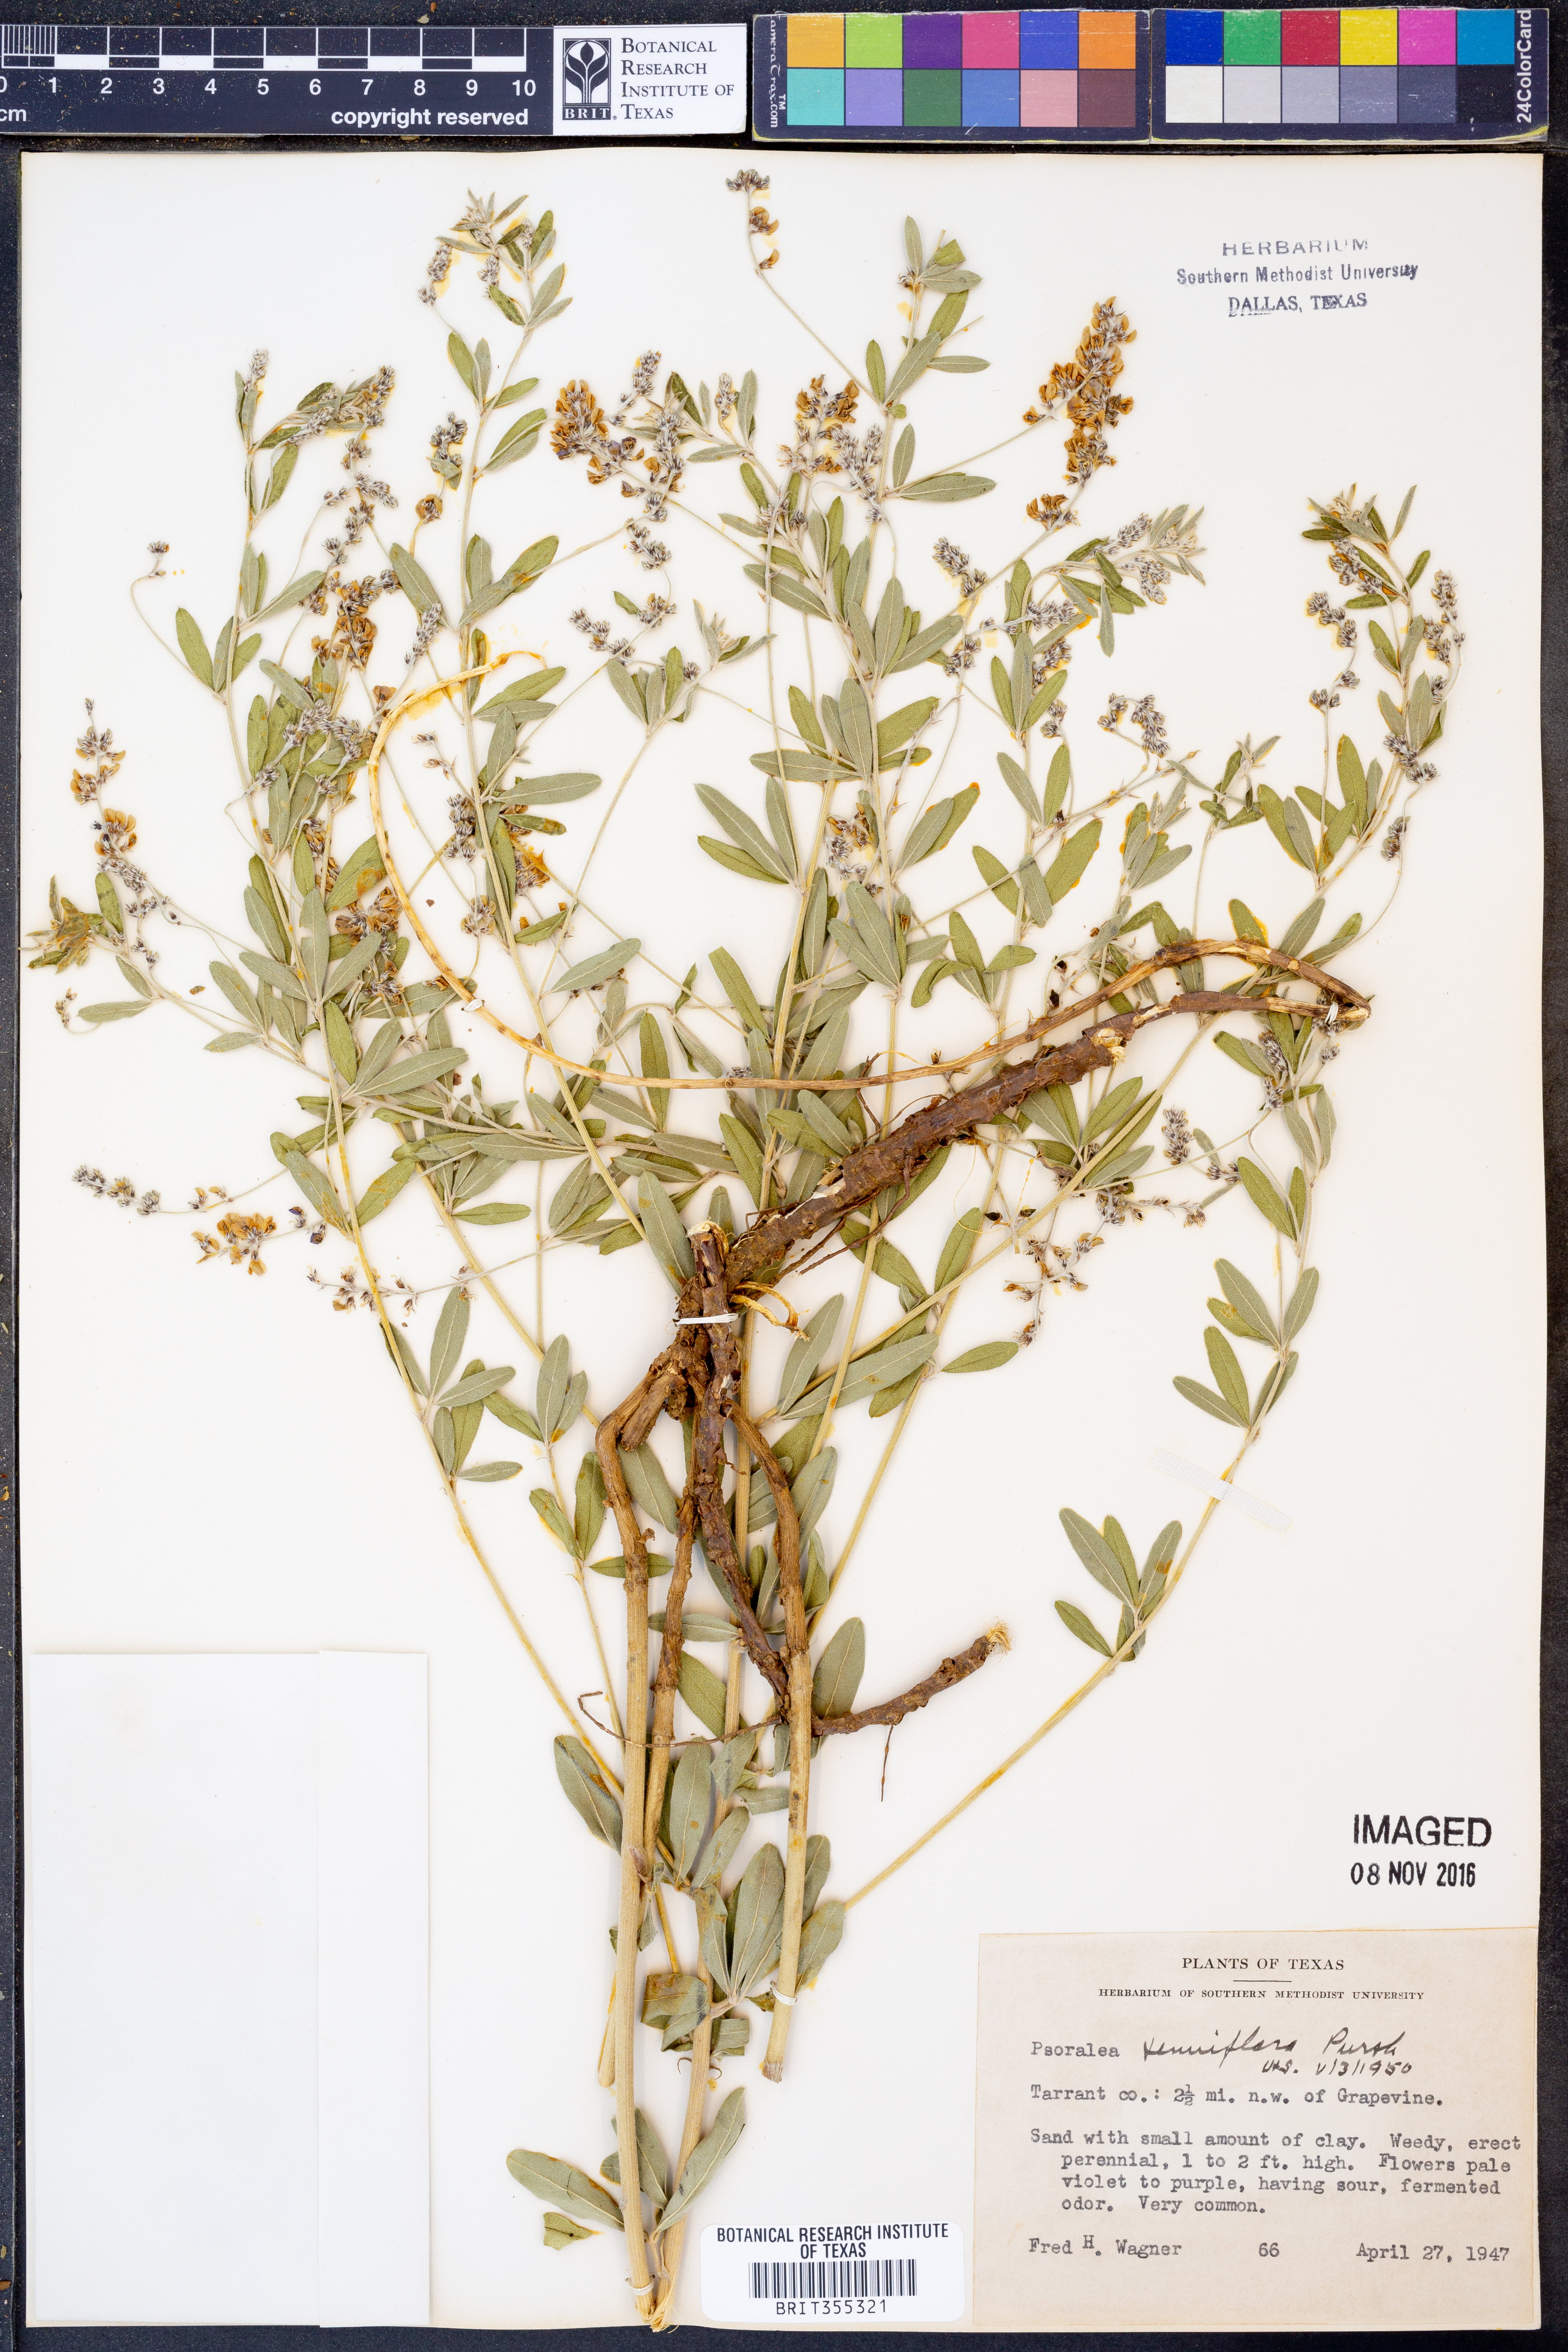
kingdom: Plantae
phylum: Tracheophyta
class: Magnoliopsida
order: Fabales
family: Fabaceae
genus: Pediomelum
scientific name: Pediomelum tenuiflorum
